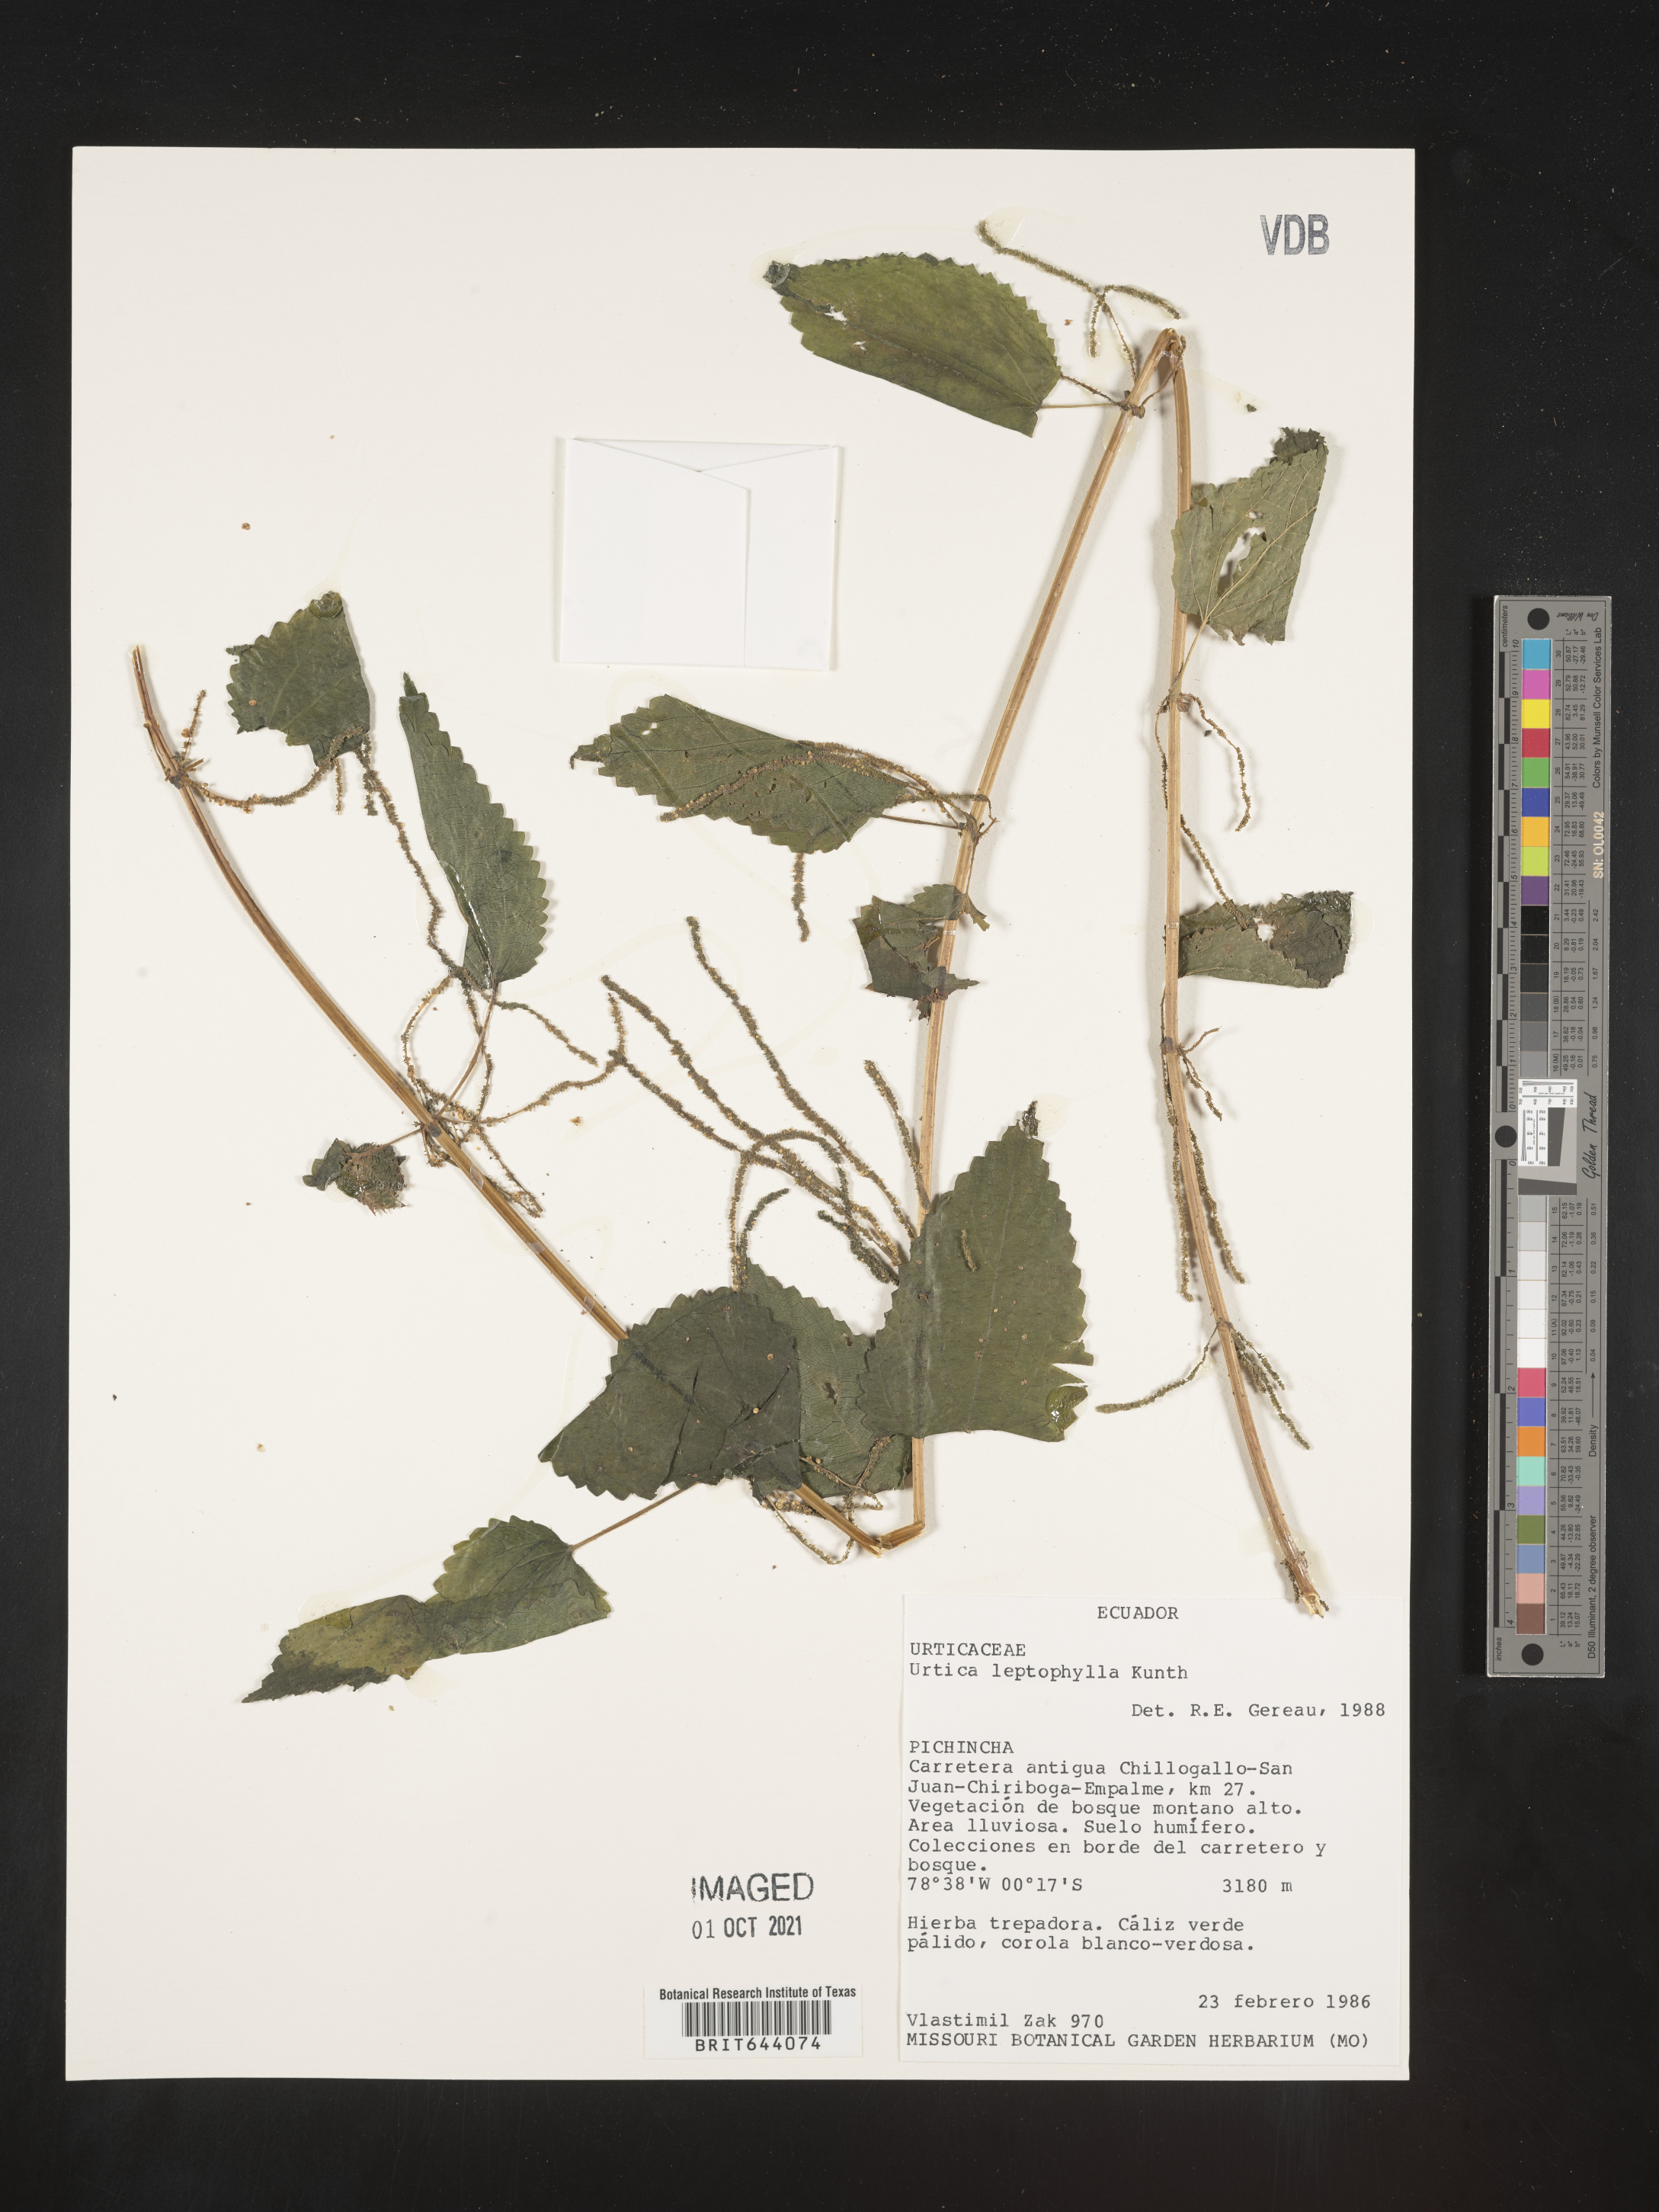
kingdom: Plantae
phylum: Tracheophyta
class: Magnoliopsida
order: Rosales
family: Urticaceae
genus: Urtica
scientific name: Urtica
